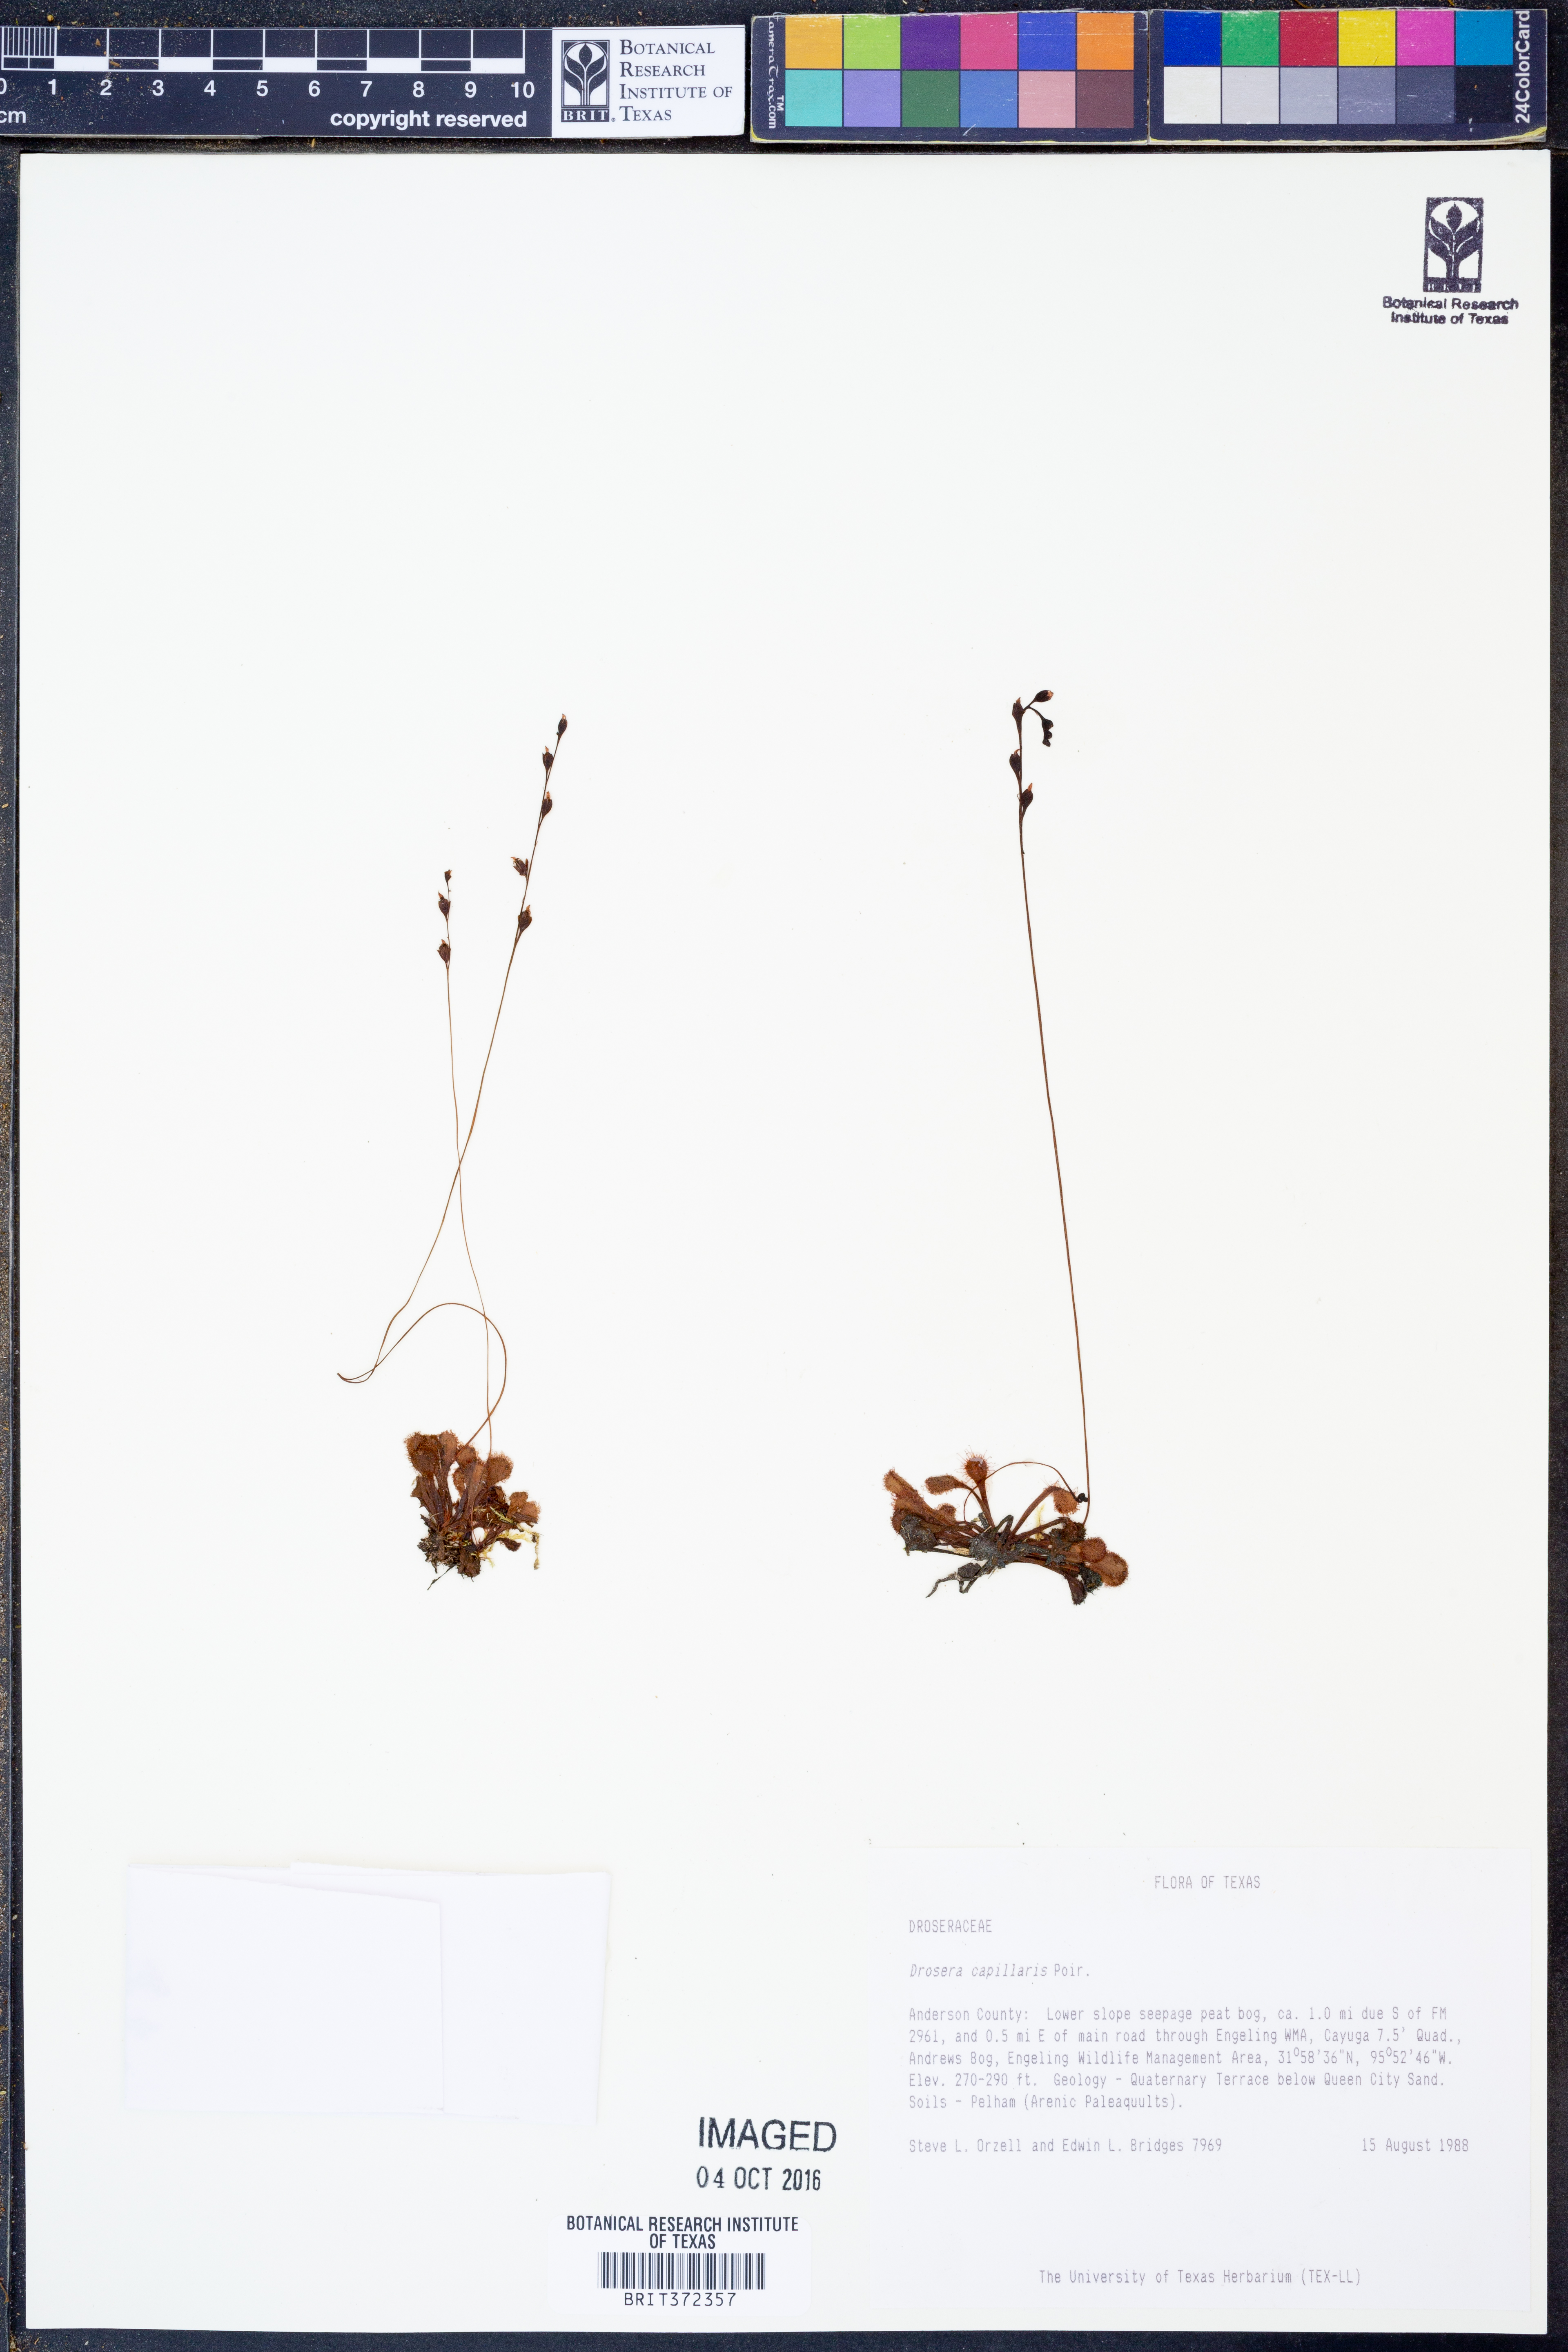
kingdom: Plantae
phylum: Tracheophyta
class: Magnoliopsida
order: Caryophyllales
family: Droseraceae
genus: Drosera
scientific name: Drosera capillaris
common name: Pink sundew
